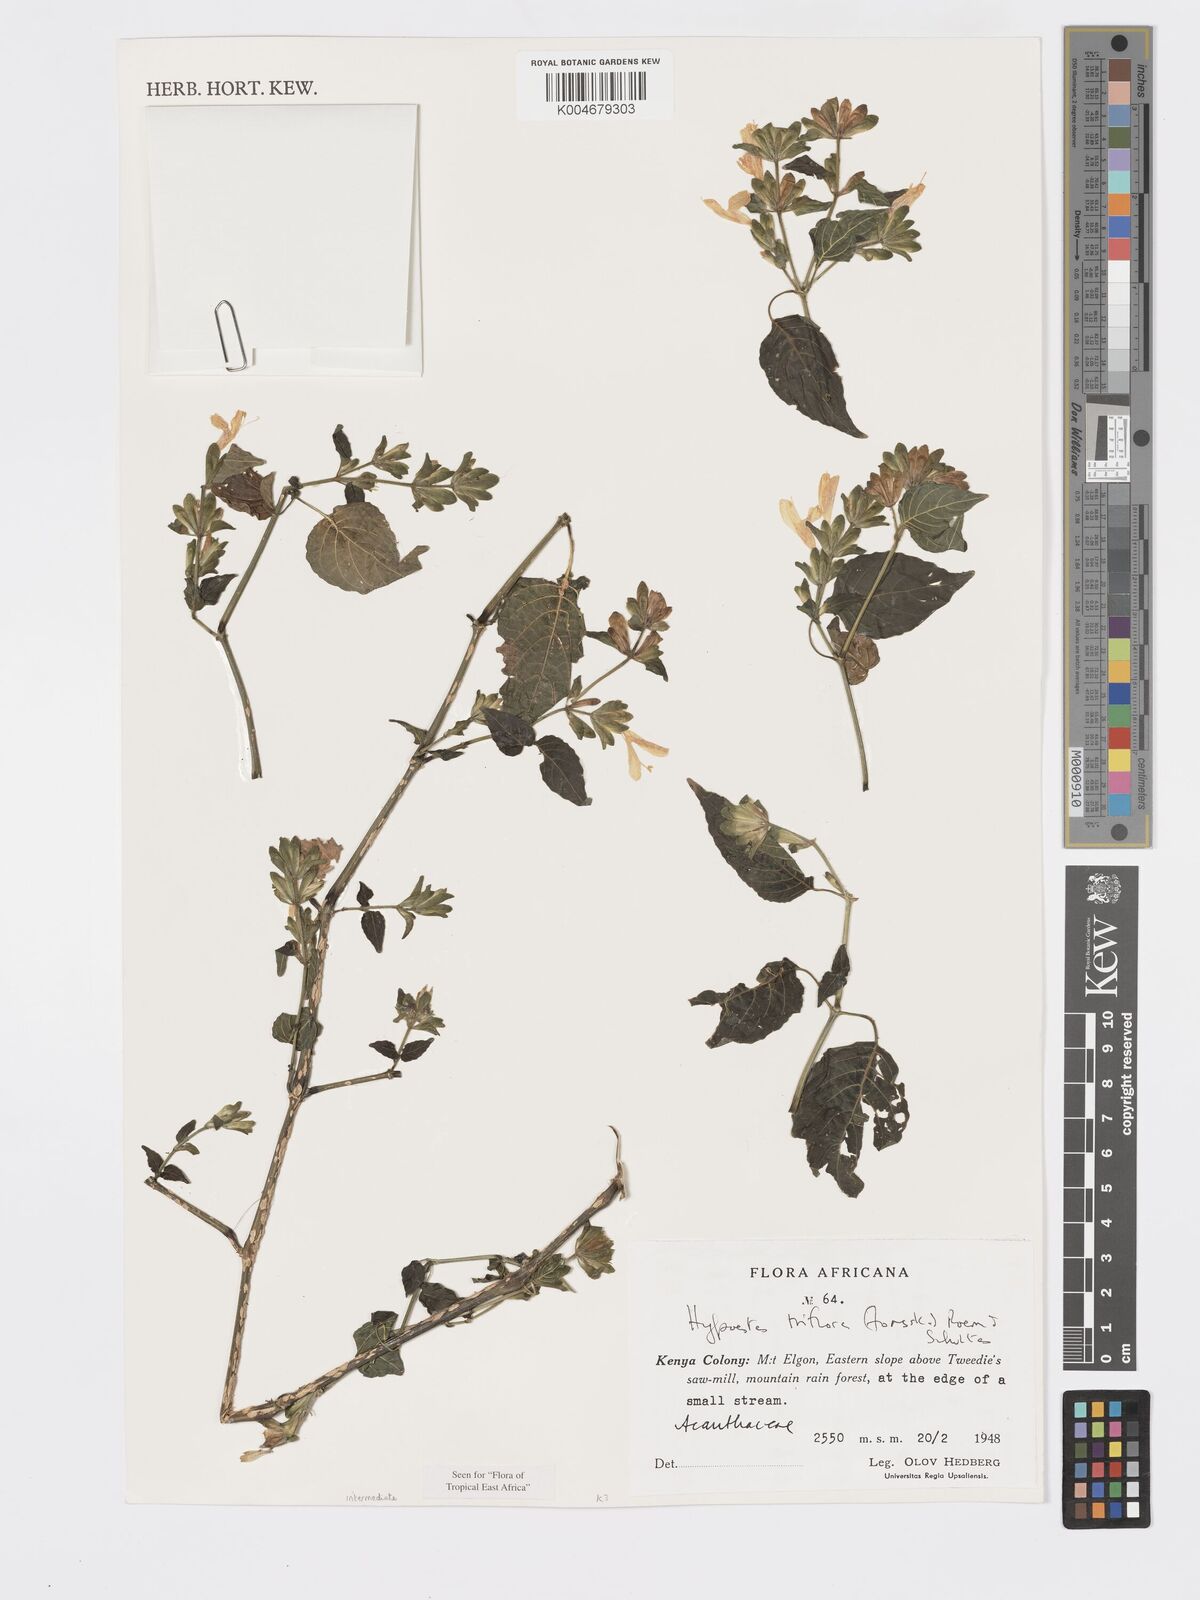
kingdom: Plantae
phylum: Tracheophyta
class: Magnoliopsida
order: Lamiales
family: Acanthaceae
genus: Hypoestes
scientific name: Hypoestes triflora
